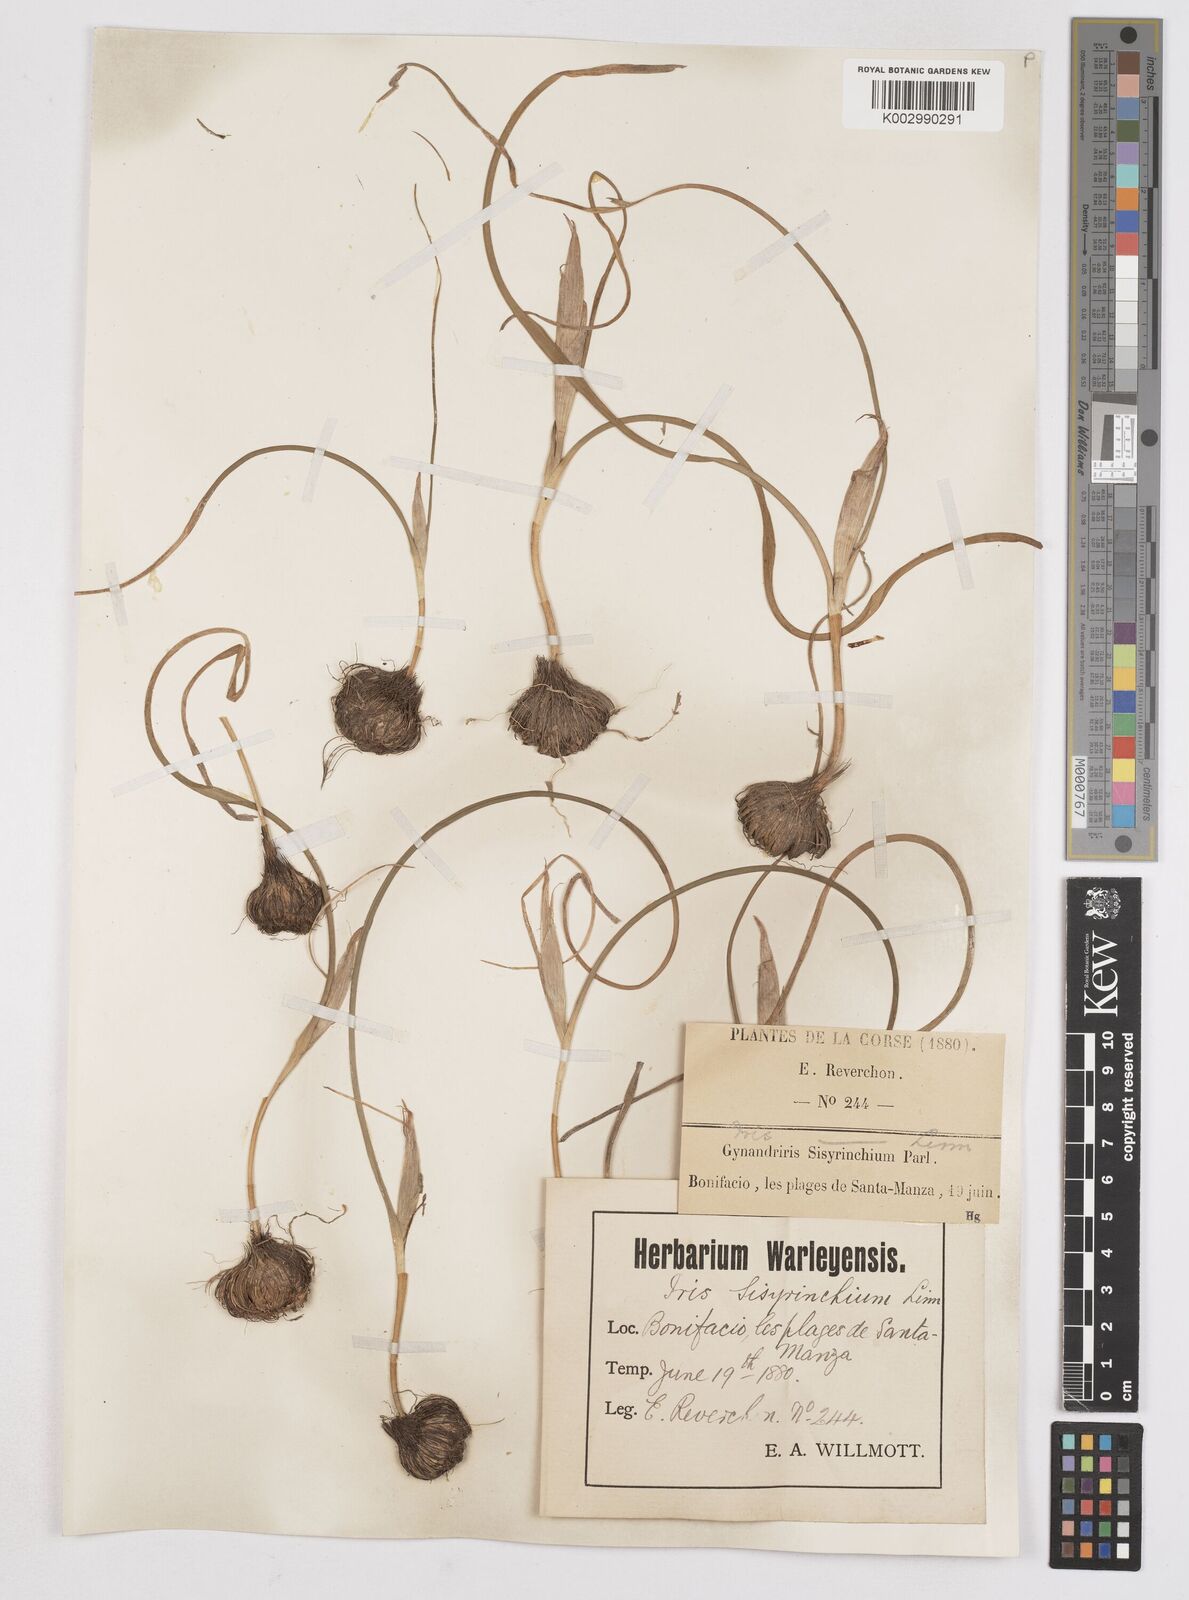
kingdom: Plantae
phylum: Tracheophyta
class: Liliopsida
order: Asparagales
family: Iridaceae
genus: Moraea
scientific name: Moraea sisyrinchium
